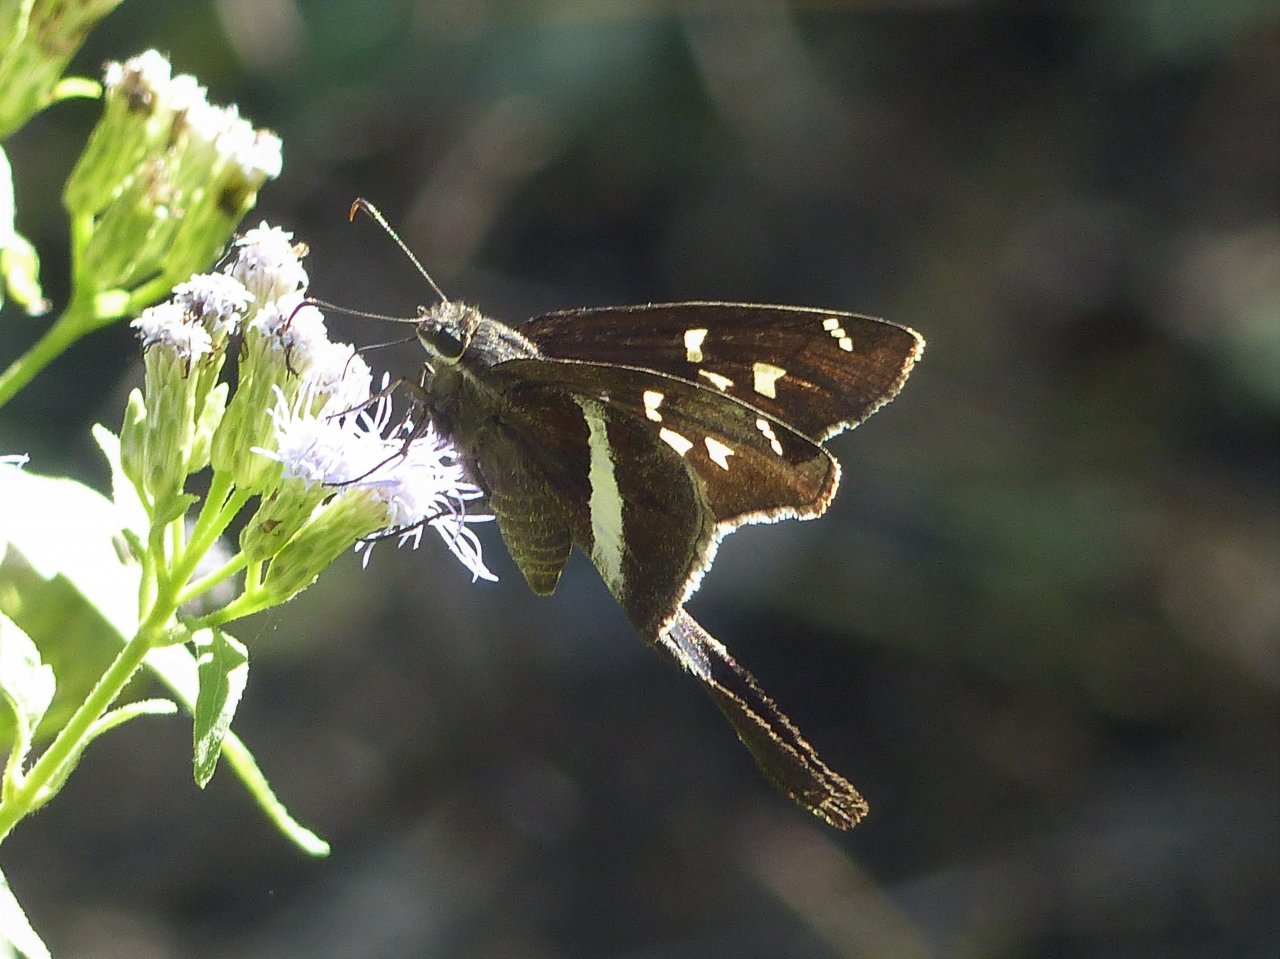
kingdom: Animalia
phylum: Arthropoda
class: Insecta
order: Lepidoptera
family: Hesperiidae
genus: Chioides
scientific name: Chioides catillus
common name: White-striped Longtail
